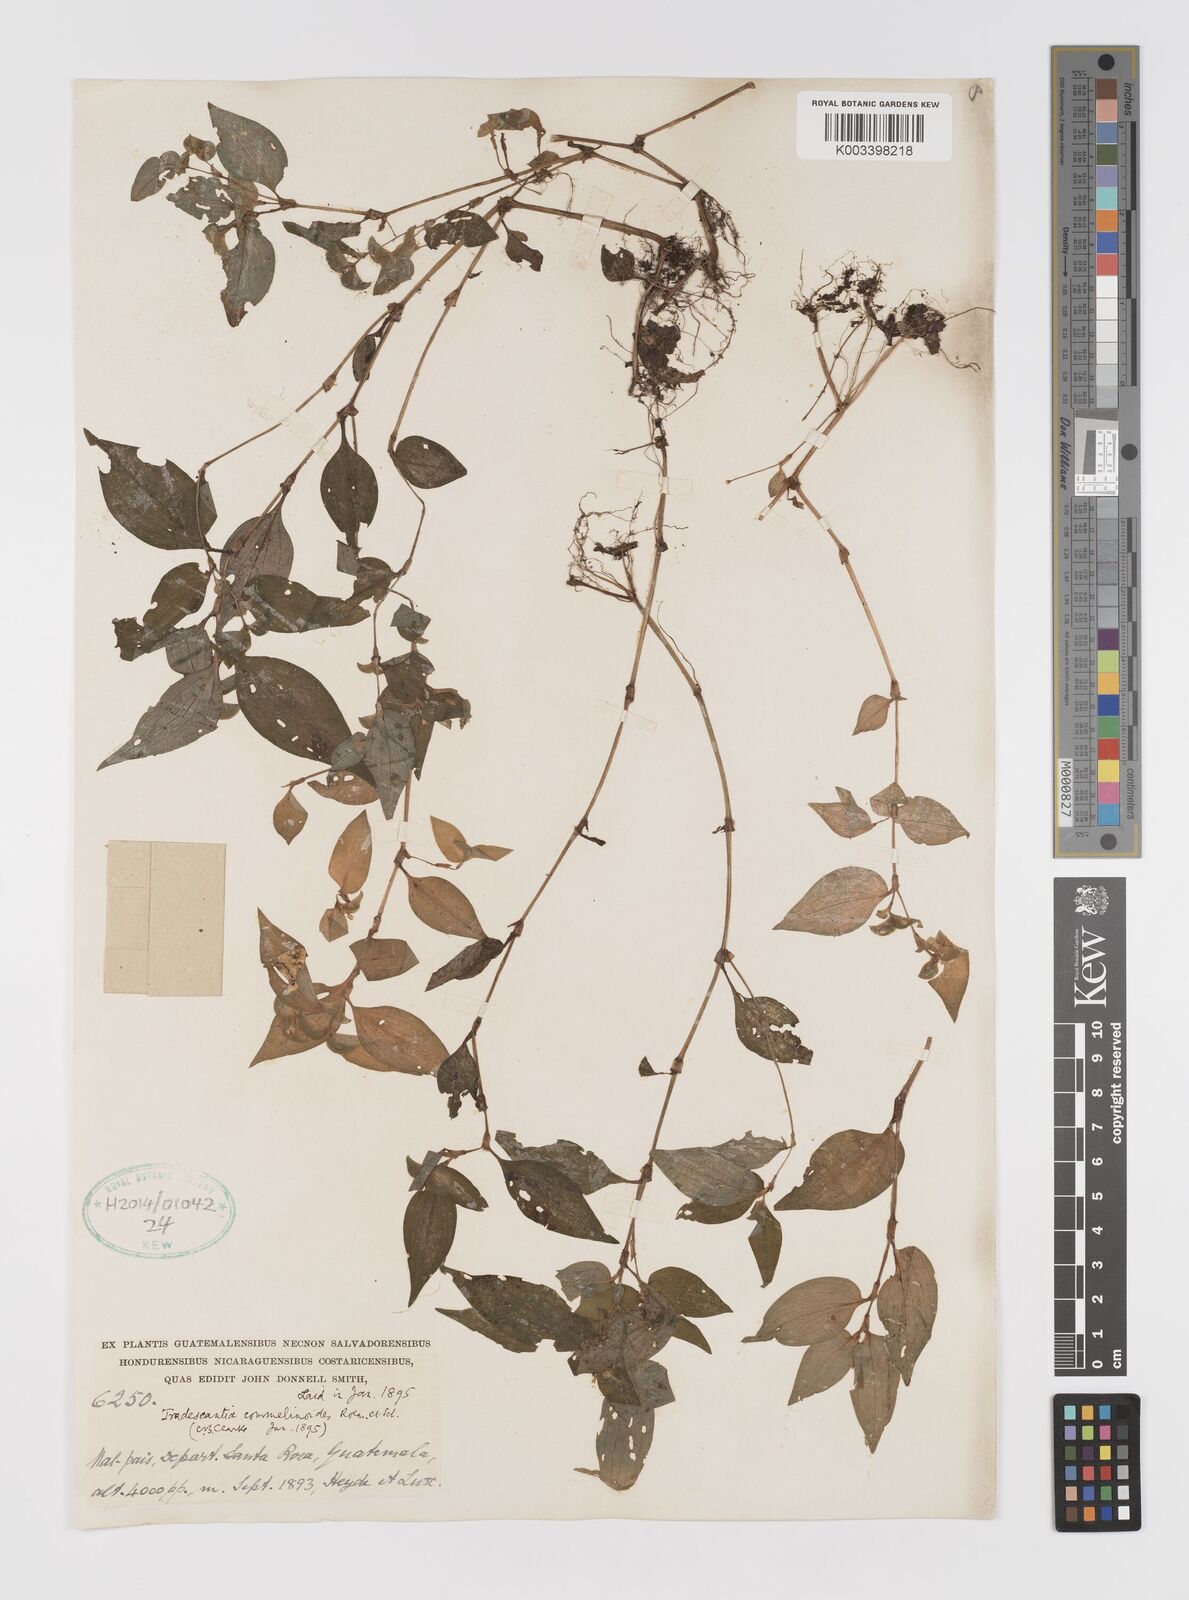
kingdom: Plantae
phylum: Tracheophyta
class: Liliopsida
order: Commelinales
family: Commelinaceae
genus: Tradescantia
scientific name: Tradescantia commelinoides
